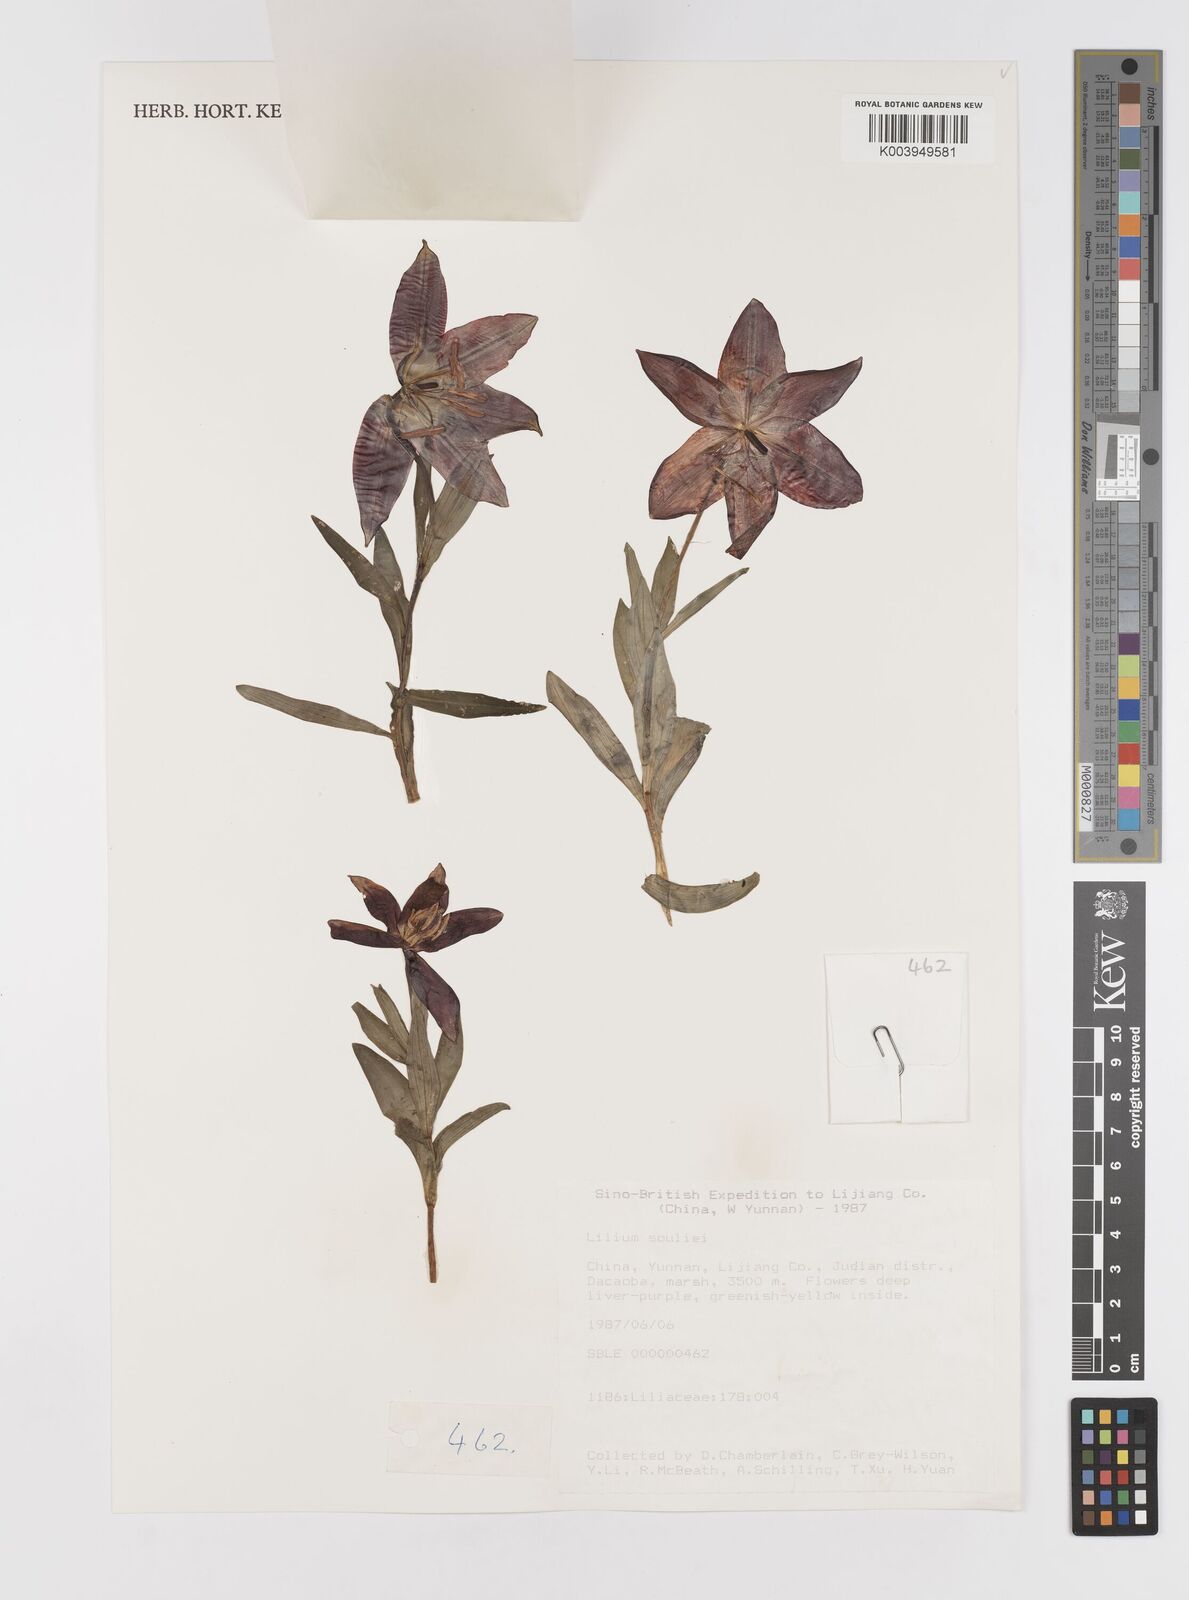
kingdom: Plantae
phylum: Tracheophyta
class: Liliopsida
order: Liliales
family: Liliaceae
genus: Lilium
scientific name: Lilium souliei
